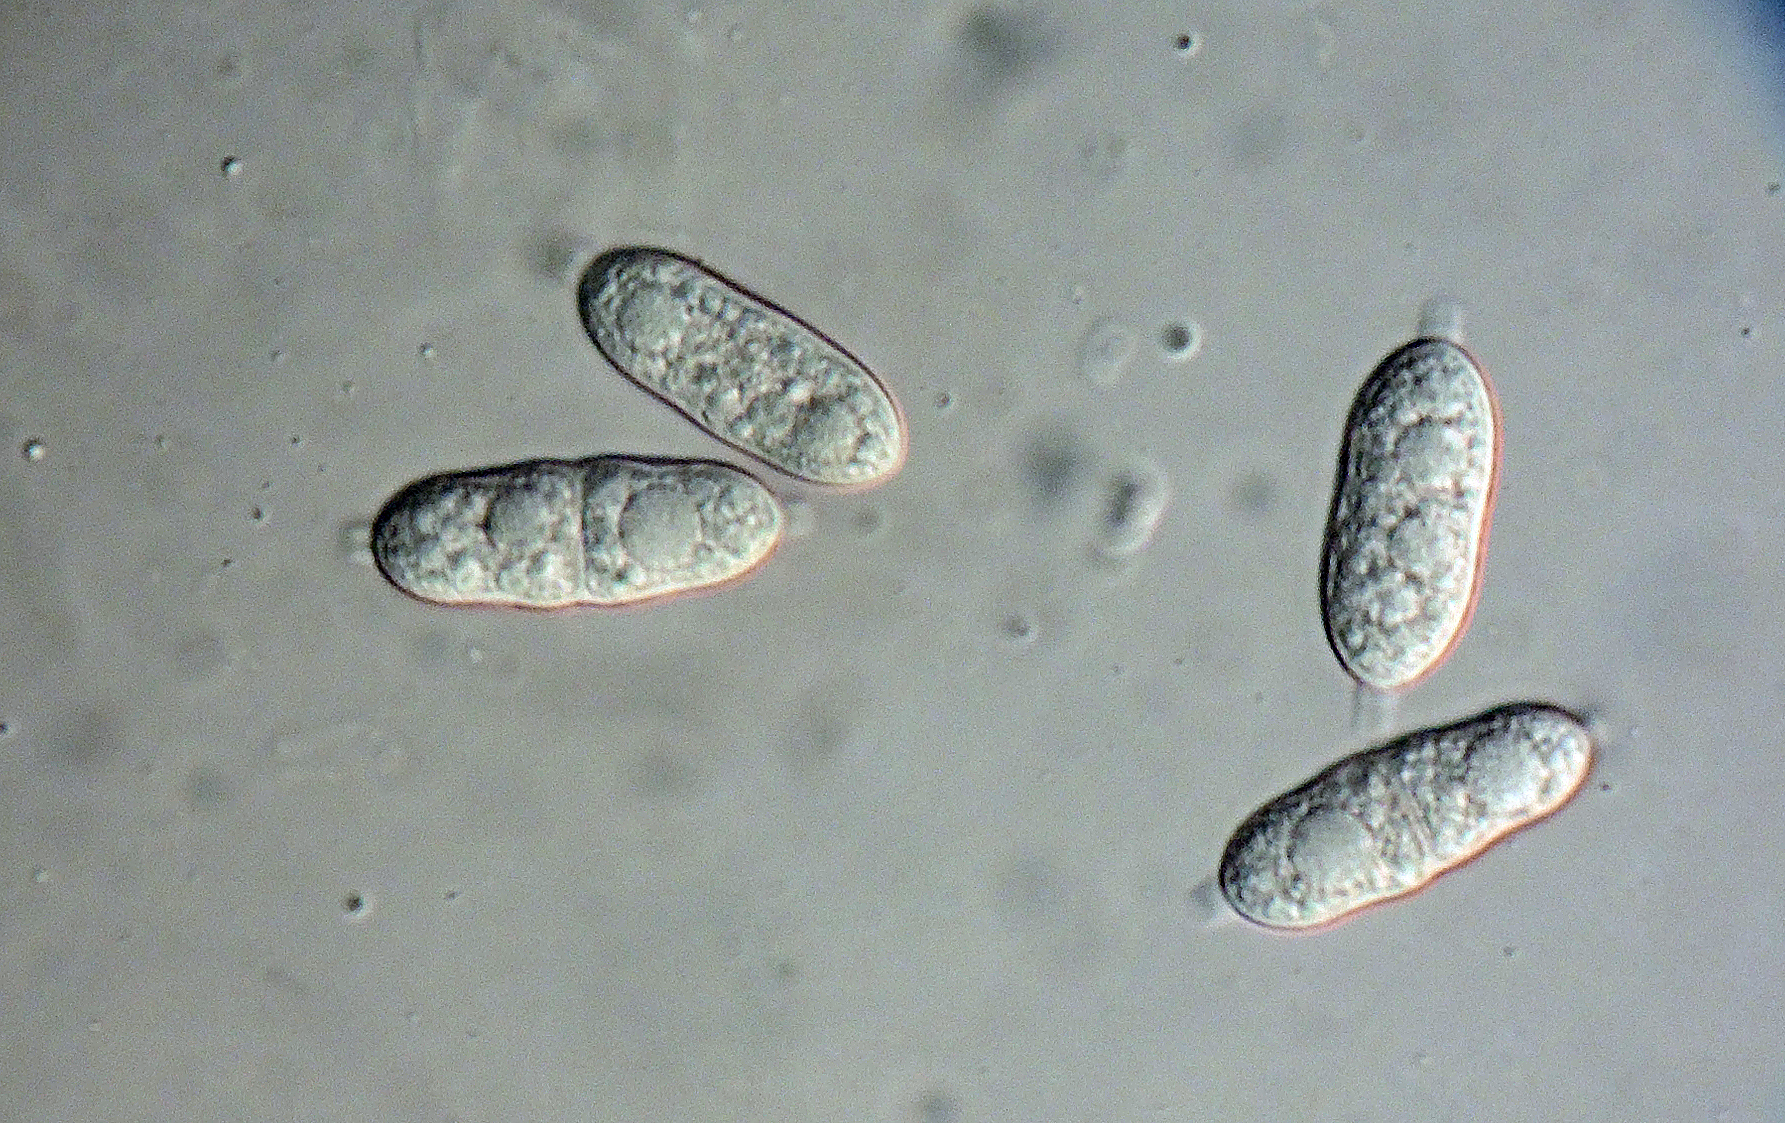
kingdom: Fungi
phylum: Ascomycota
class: Sordariomycetes
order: Diaporthales
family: Gnomoniaceae
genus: Alnecium
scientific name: Alnecium auctum
